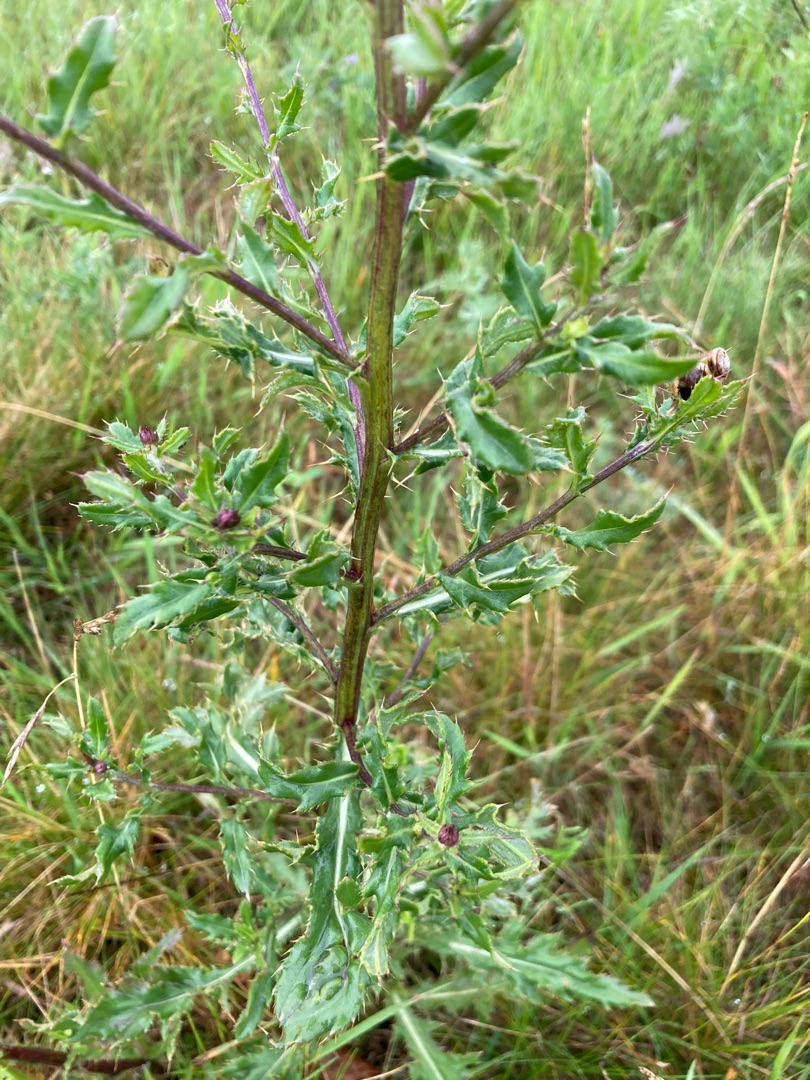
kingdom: Plantae
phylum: Tracheophyta
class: Magnoliopsida
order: Asterales
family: Asteraceae
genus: Cirsium
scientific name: Cirsium arvense
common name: Ager-tidsel
